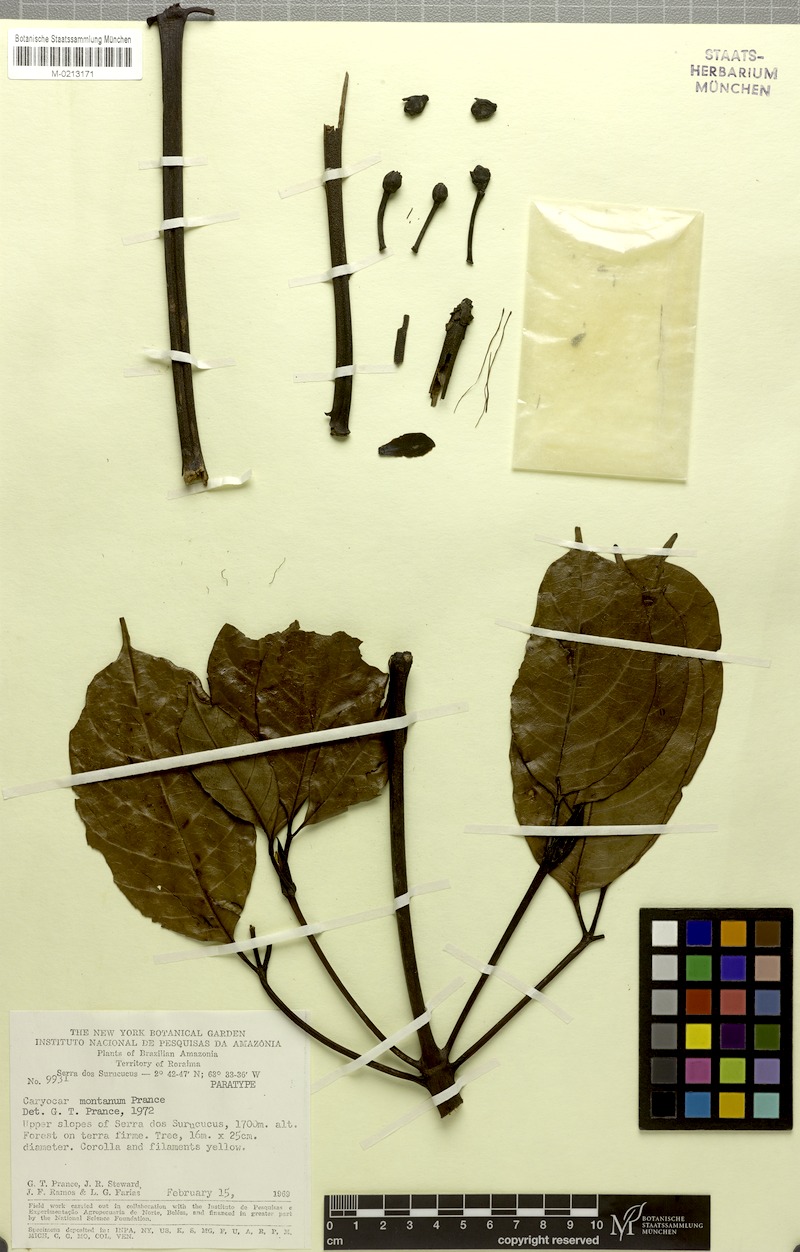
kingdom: Plantae
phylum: Tracheophyta
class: Magnoliopsida
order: Malpighiales
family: Caryocaraceae
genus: Caryocar
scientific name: Caryocar montanum
